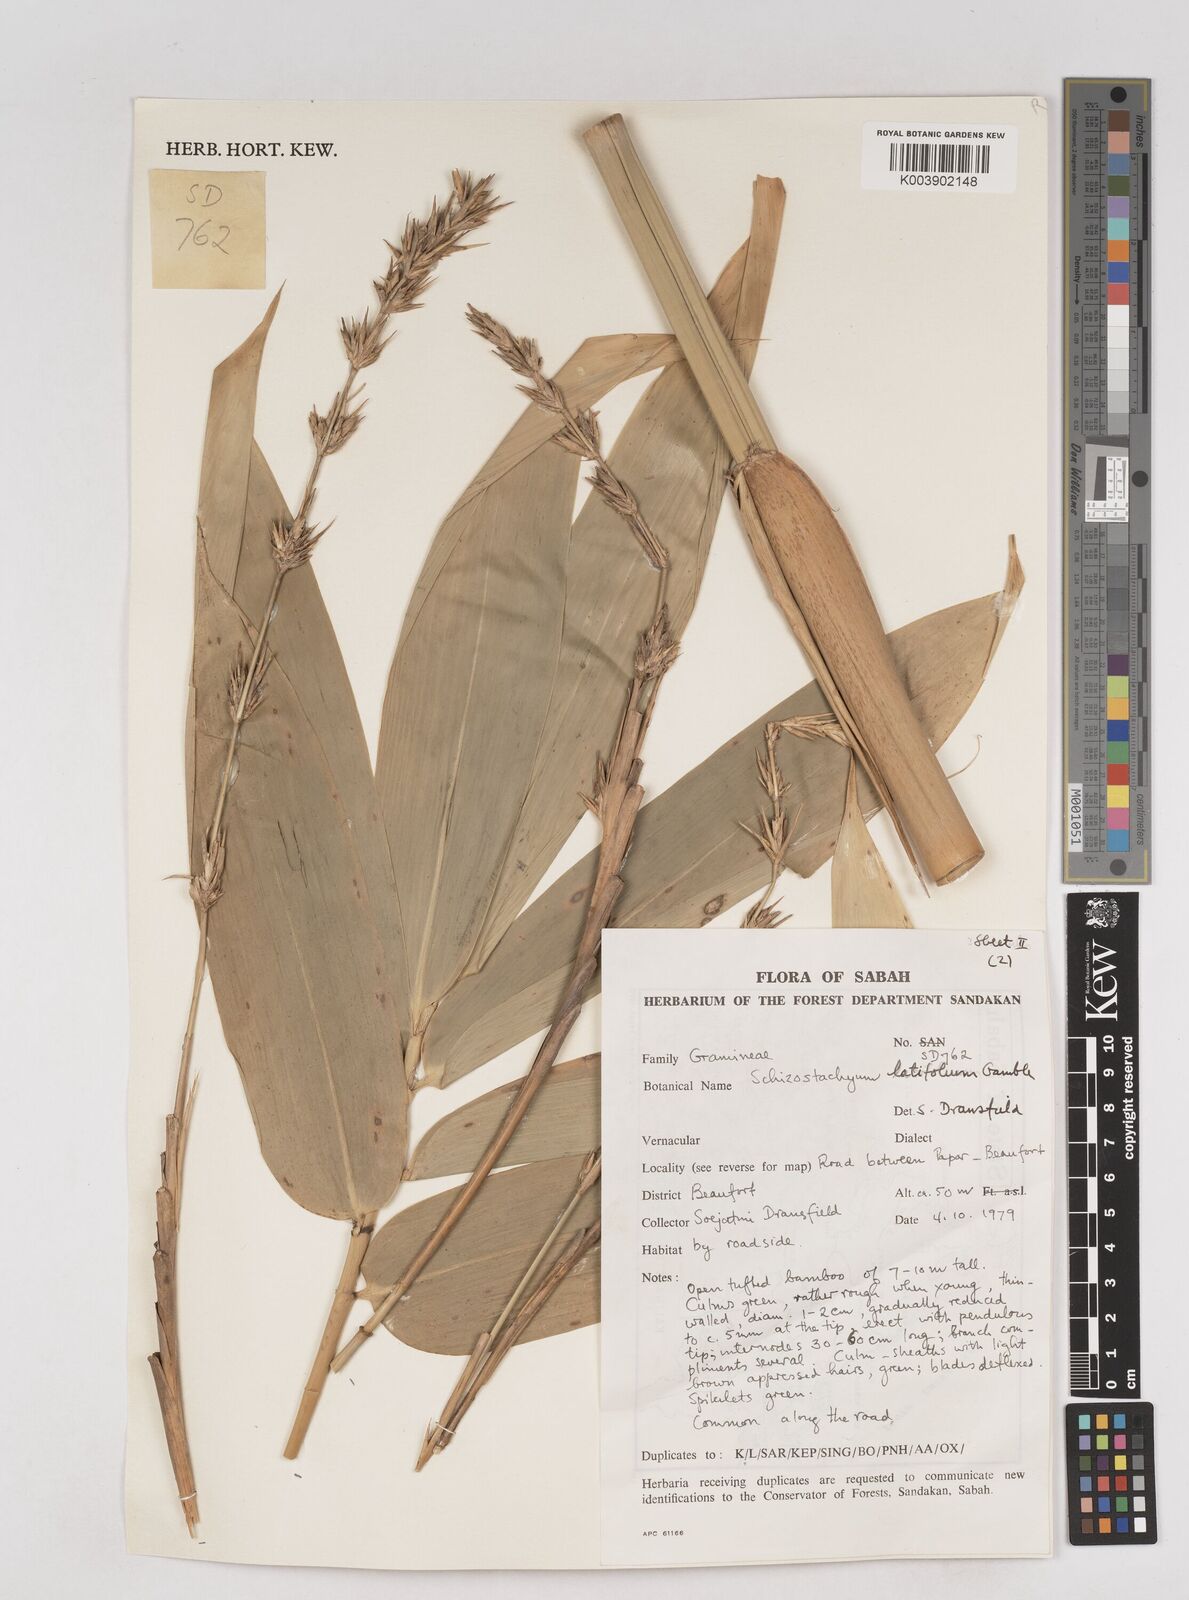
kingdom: Plantae
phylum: Tracheophyta
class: Liliopsida
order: Poales
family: Poaceae
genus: Schizostachyum
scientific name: Schizostachyum
